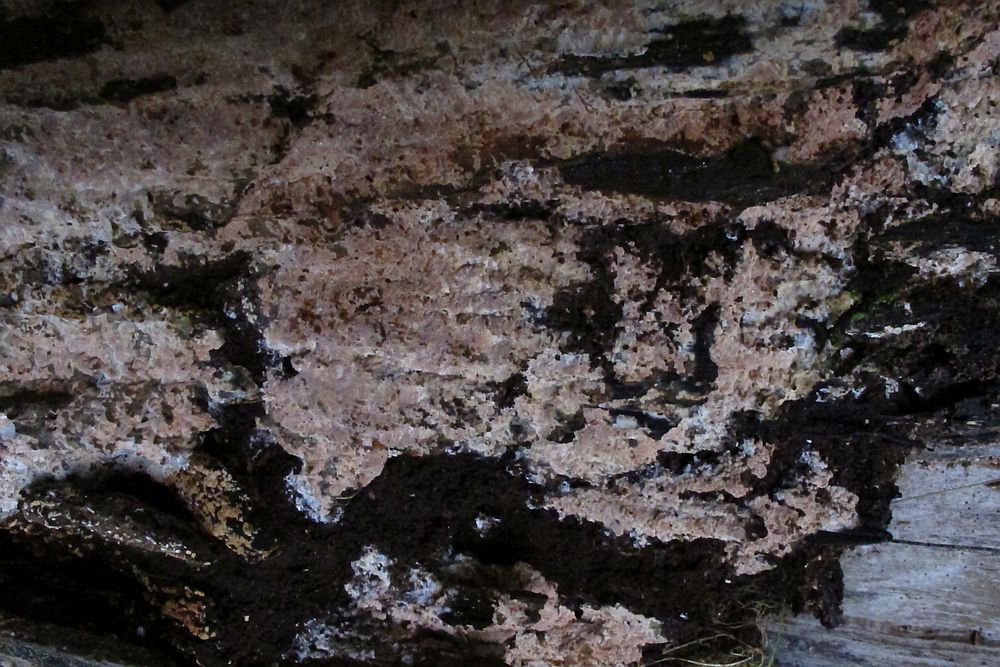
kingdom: Fungi
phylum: Basidiomycota
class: Agaricomycetes
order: Russulales
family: Peniophoraceae
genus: Gloiothele
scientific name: Gloiothele lactescens
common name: bitter olieskind
